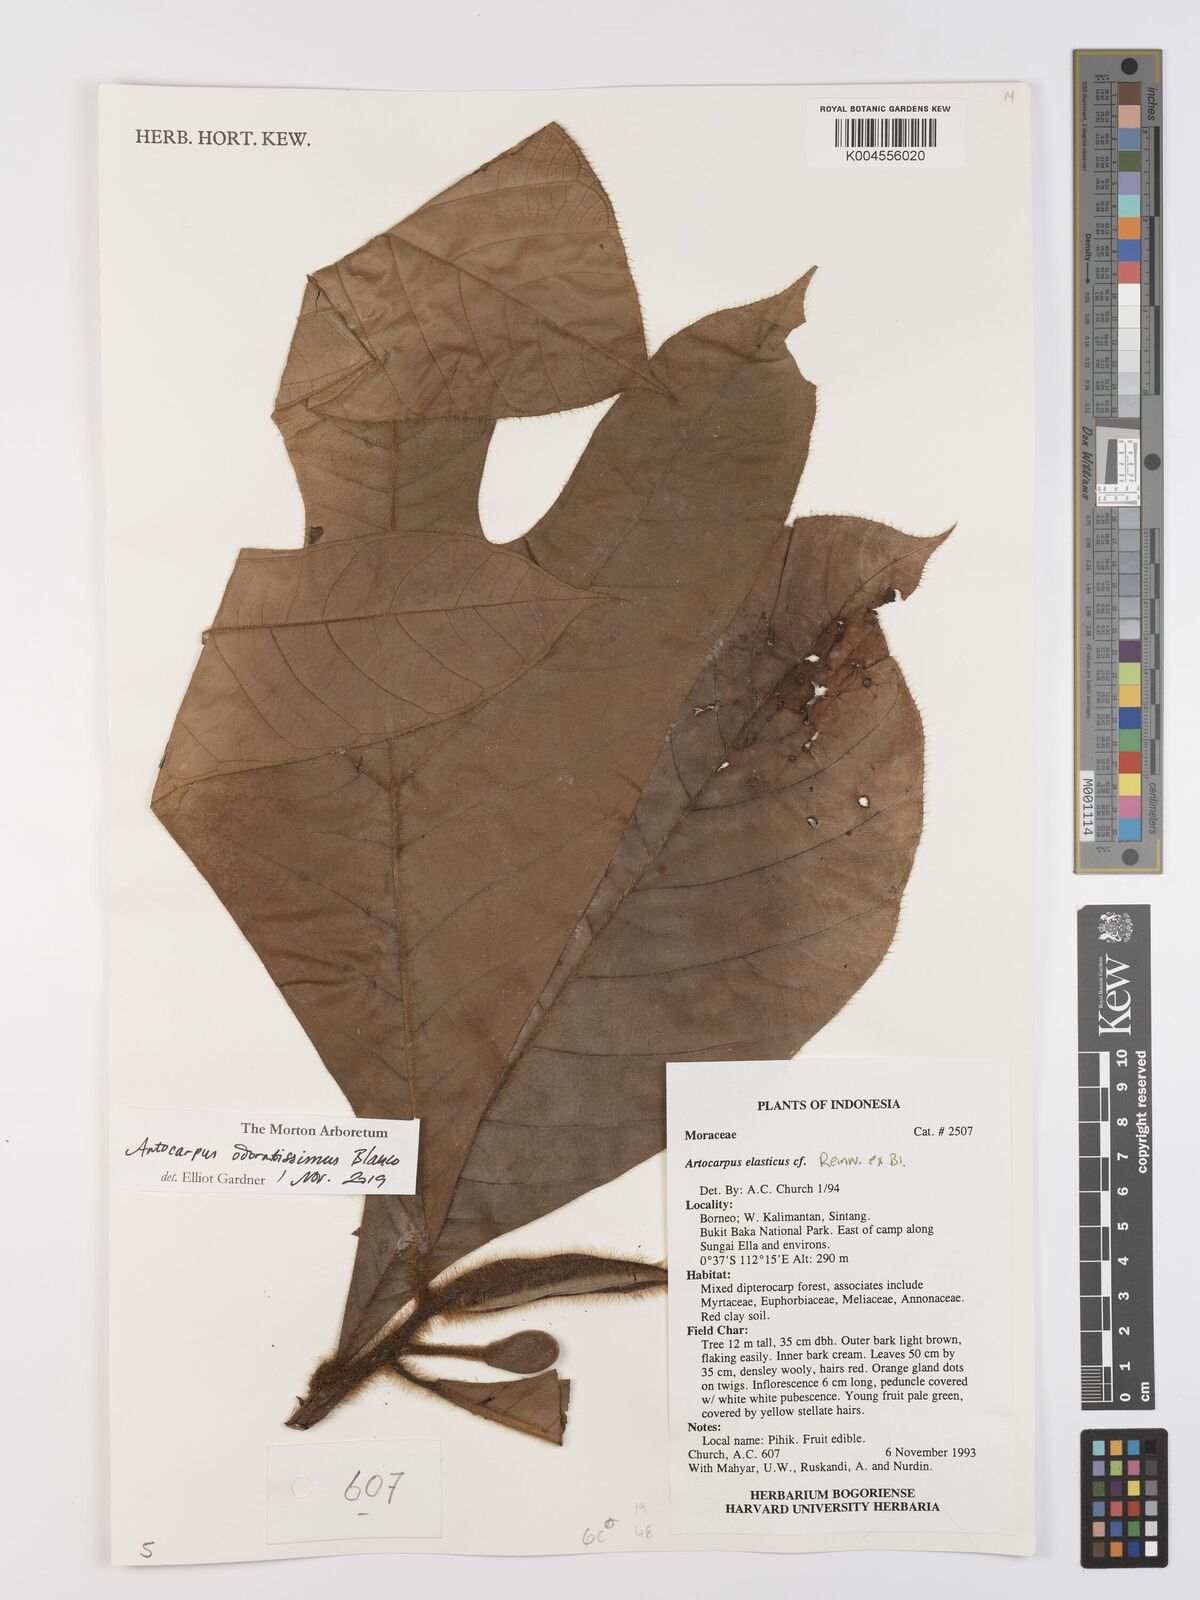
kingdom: Plantae
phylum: Tracheophyta
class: Magnoliopsida
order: Rosales
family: Moraceae
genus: Artocarpus
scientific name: Artocarpus odoratissimus
